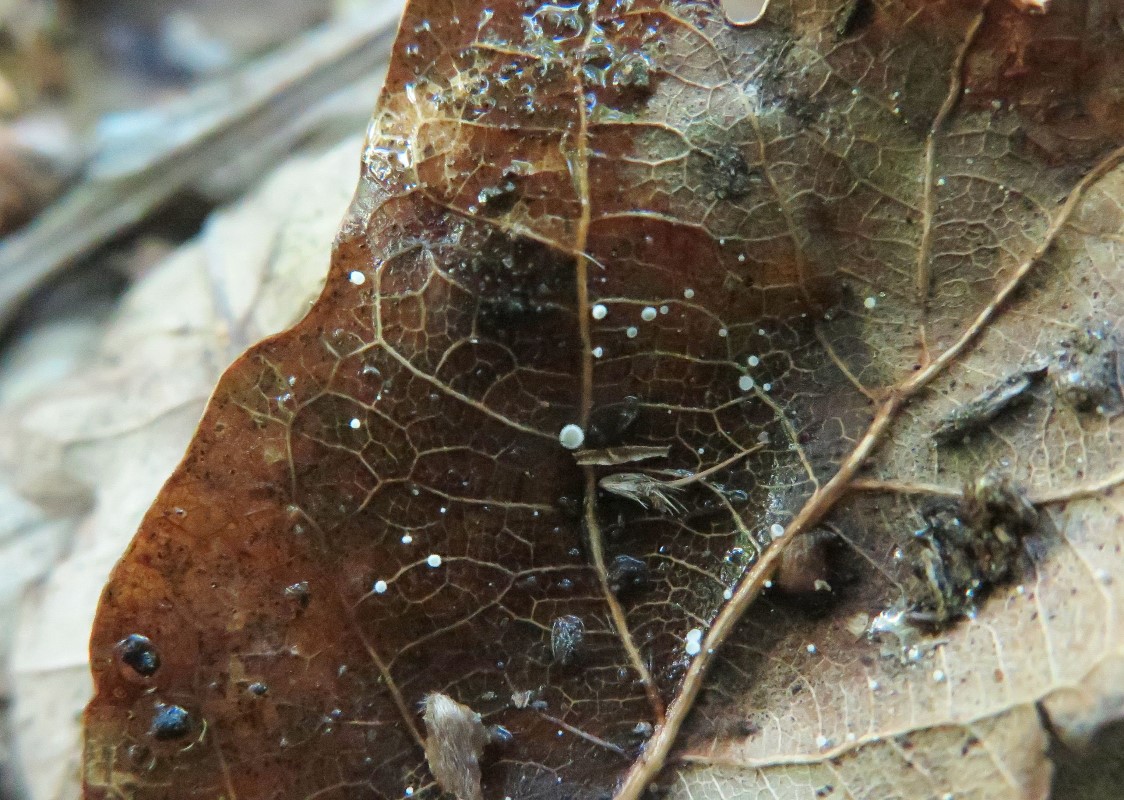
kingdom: Fungi
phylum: Ascomycota
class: Leotiomycetes
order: Helotiales
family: Lachnaceae
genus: Brunnipila
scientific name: Brunnipila brunneola
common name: læderbrun frynseskive
